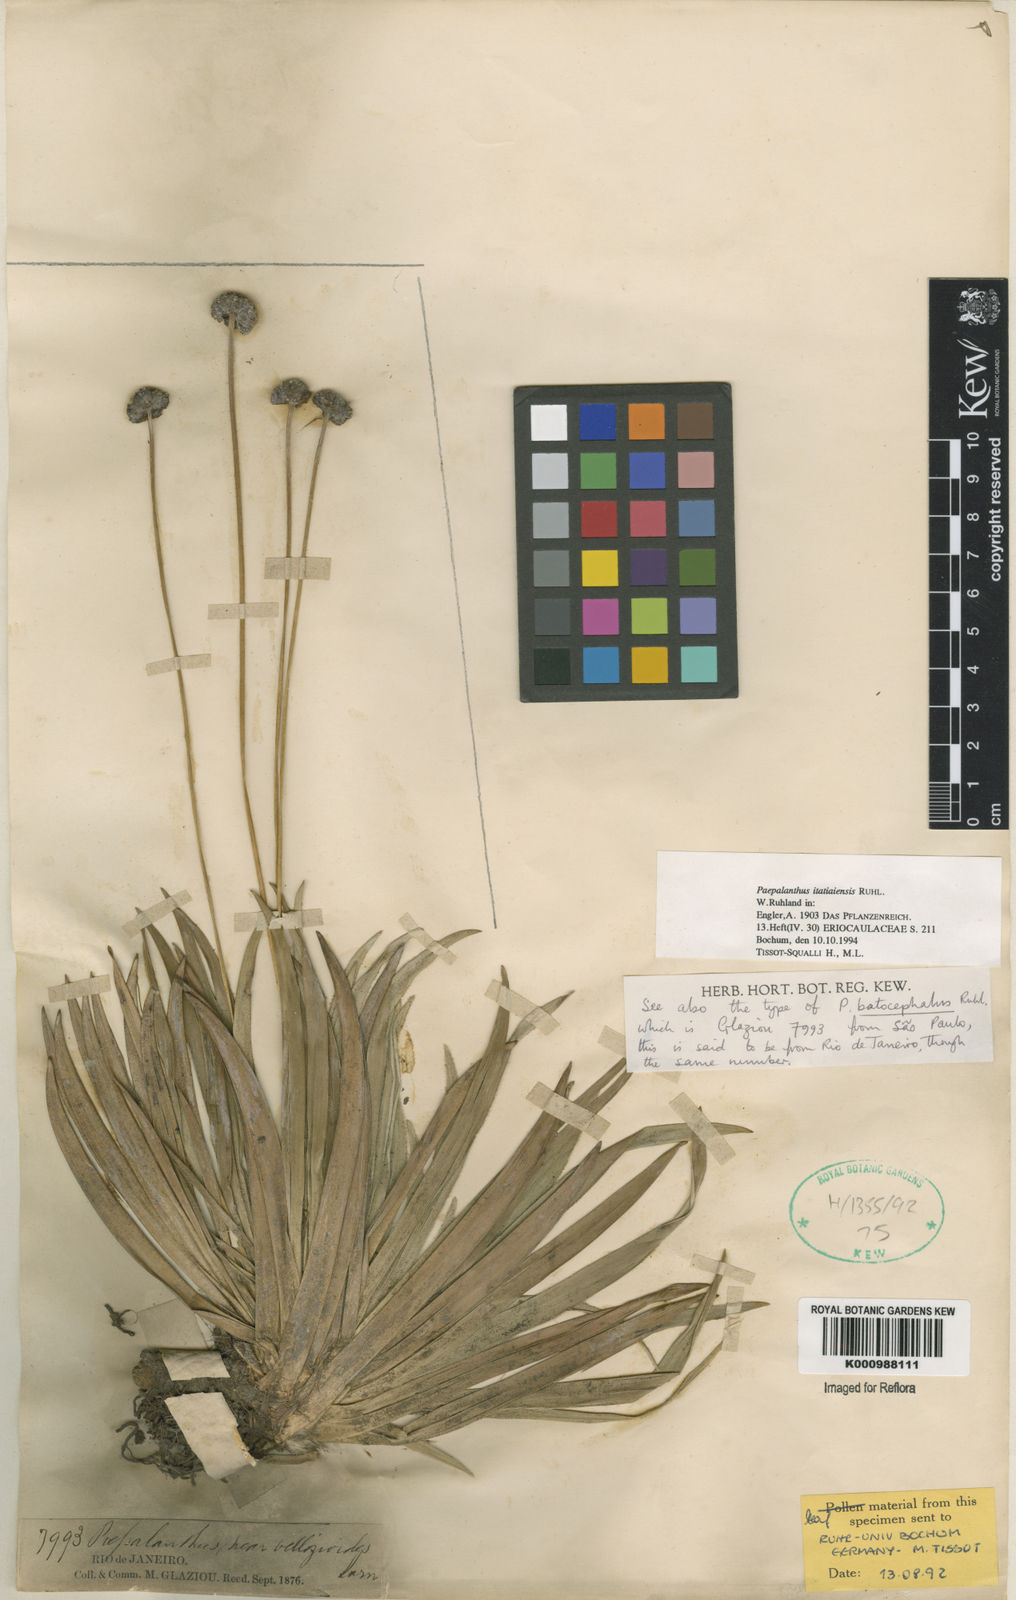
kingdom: Plantae
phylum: Tracheophyta
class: Liliopsida
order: Poales
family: Eriocaulaceae
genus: Paepalanthus
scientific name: Paepalanthus itatiaiensis
